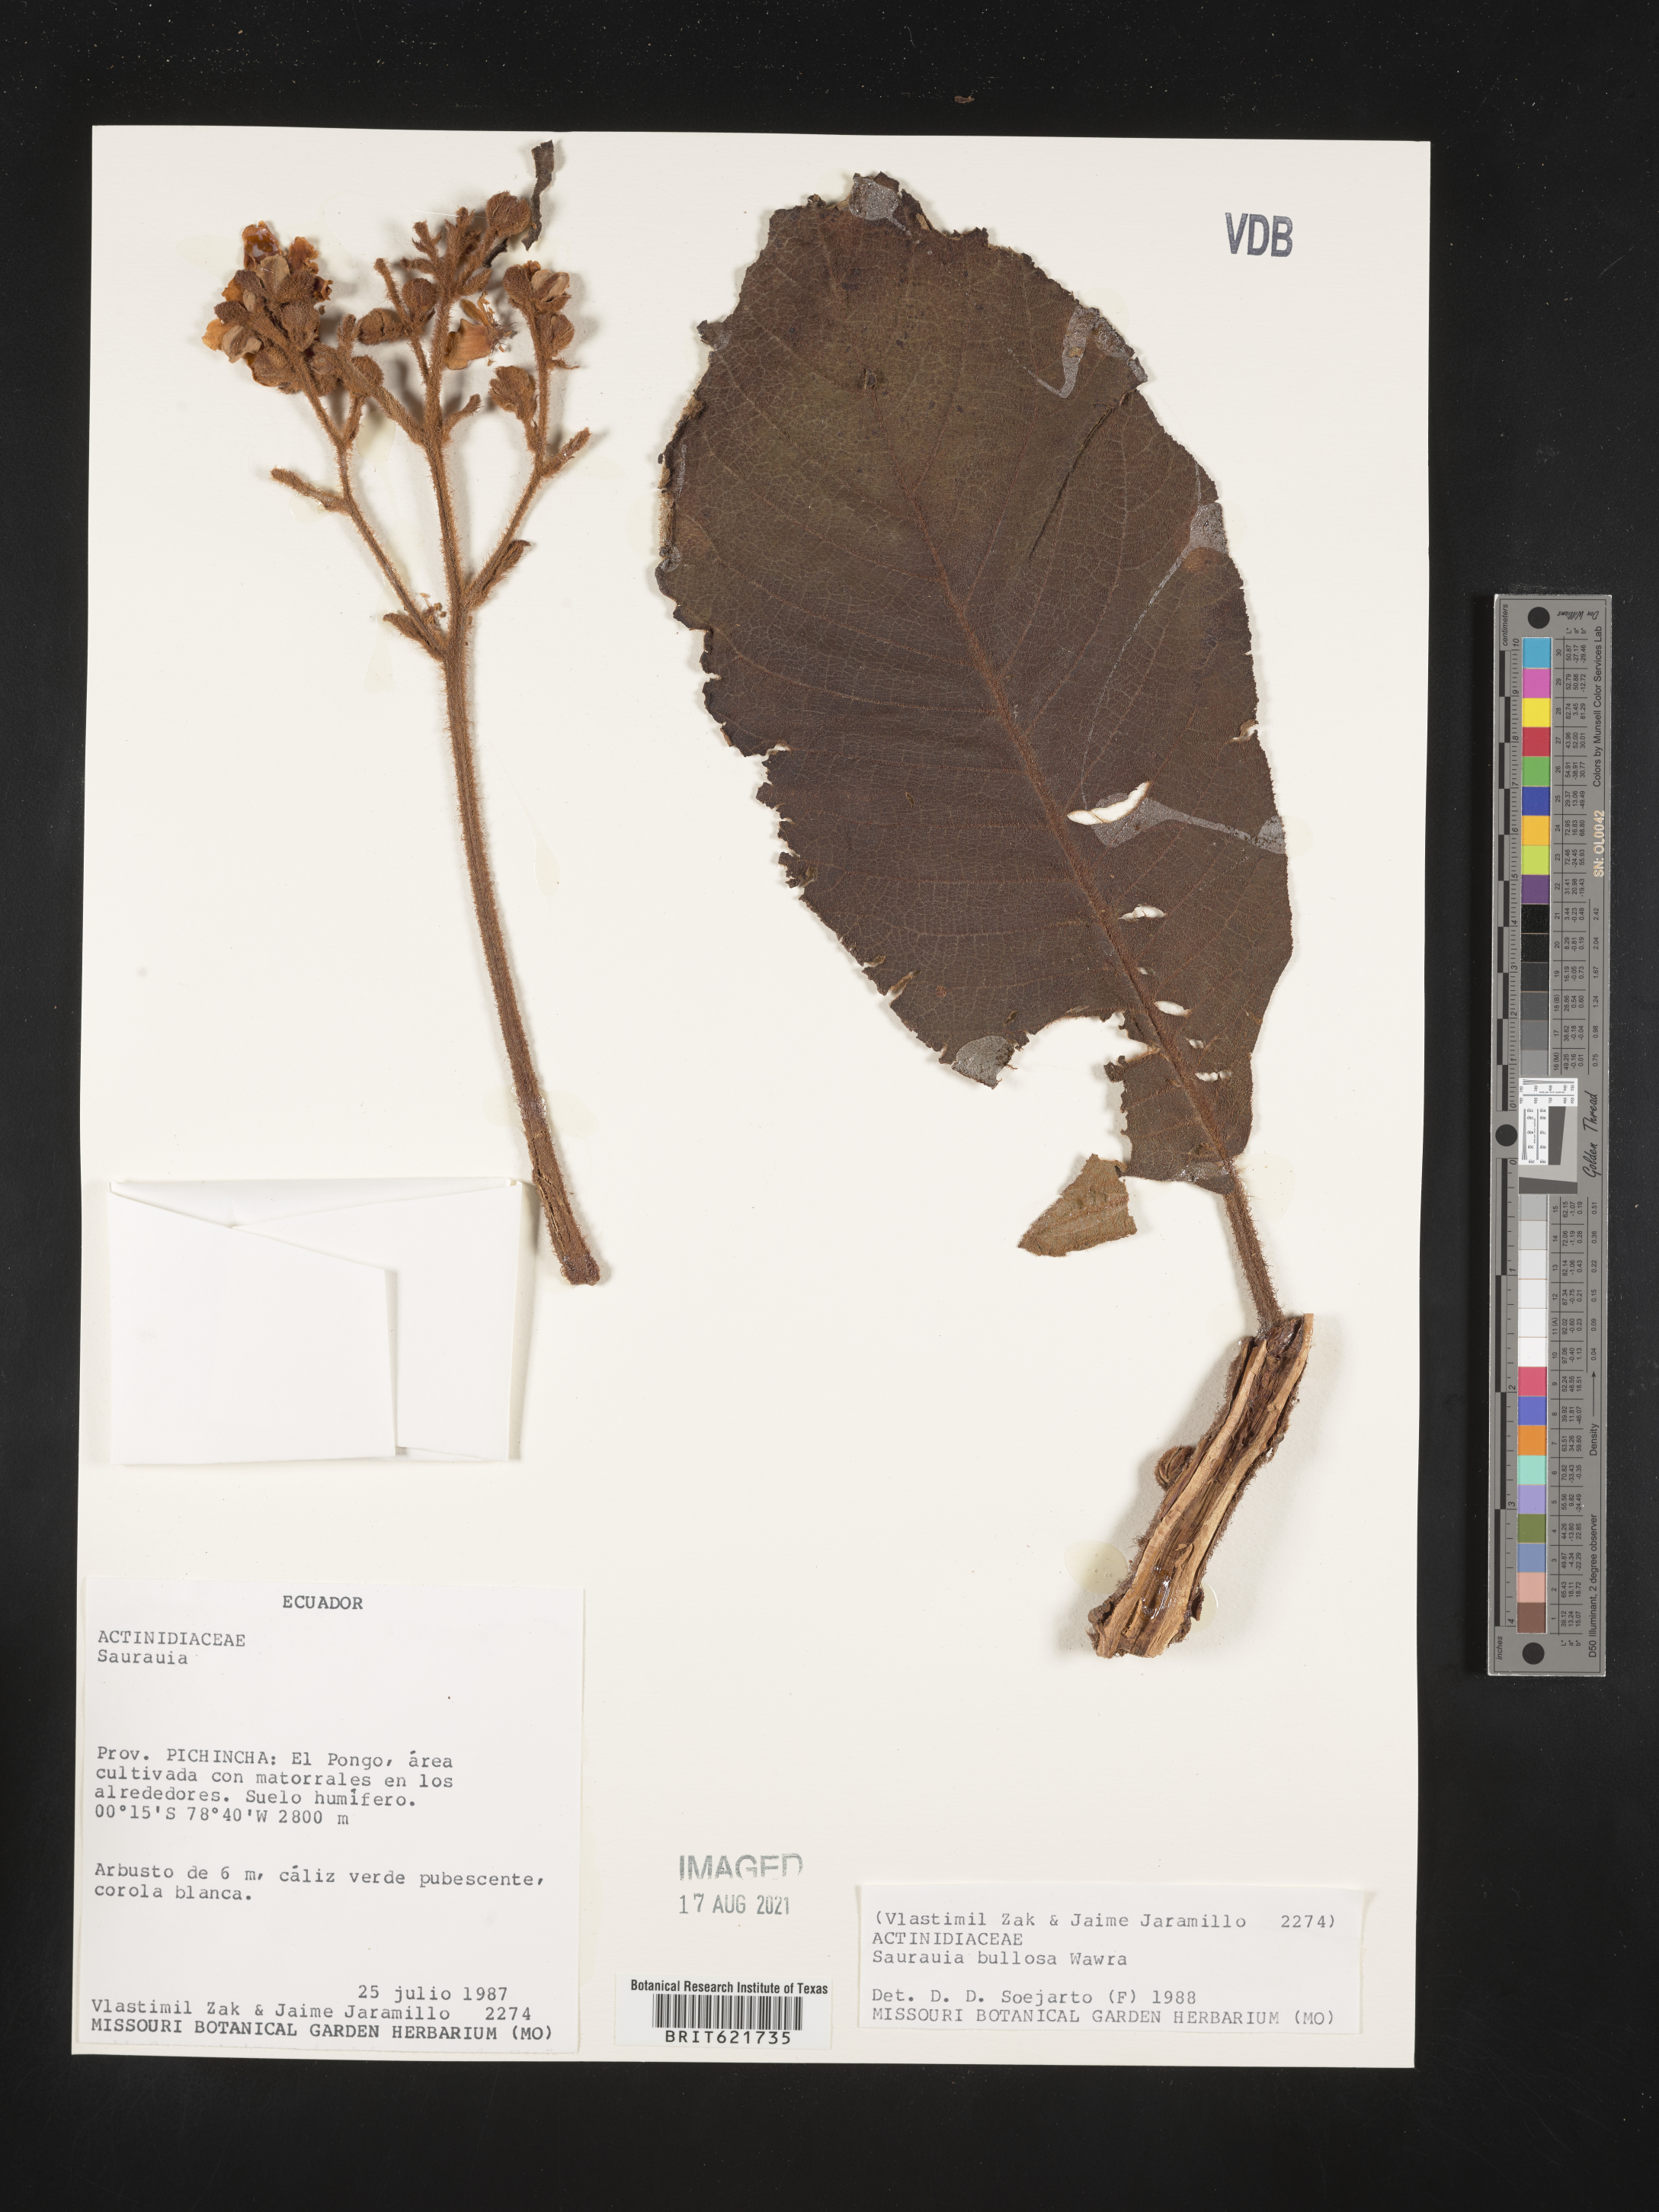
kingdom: Plantae
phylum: Tracheophyta
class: Magnoliopsida
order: Ericales
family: Actinidiaceae
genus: Saurauia
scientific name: Saurauia bullosa
